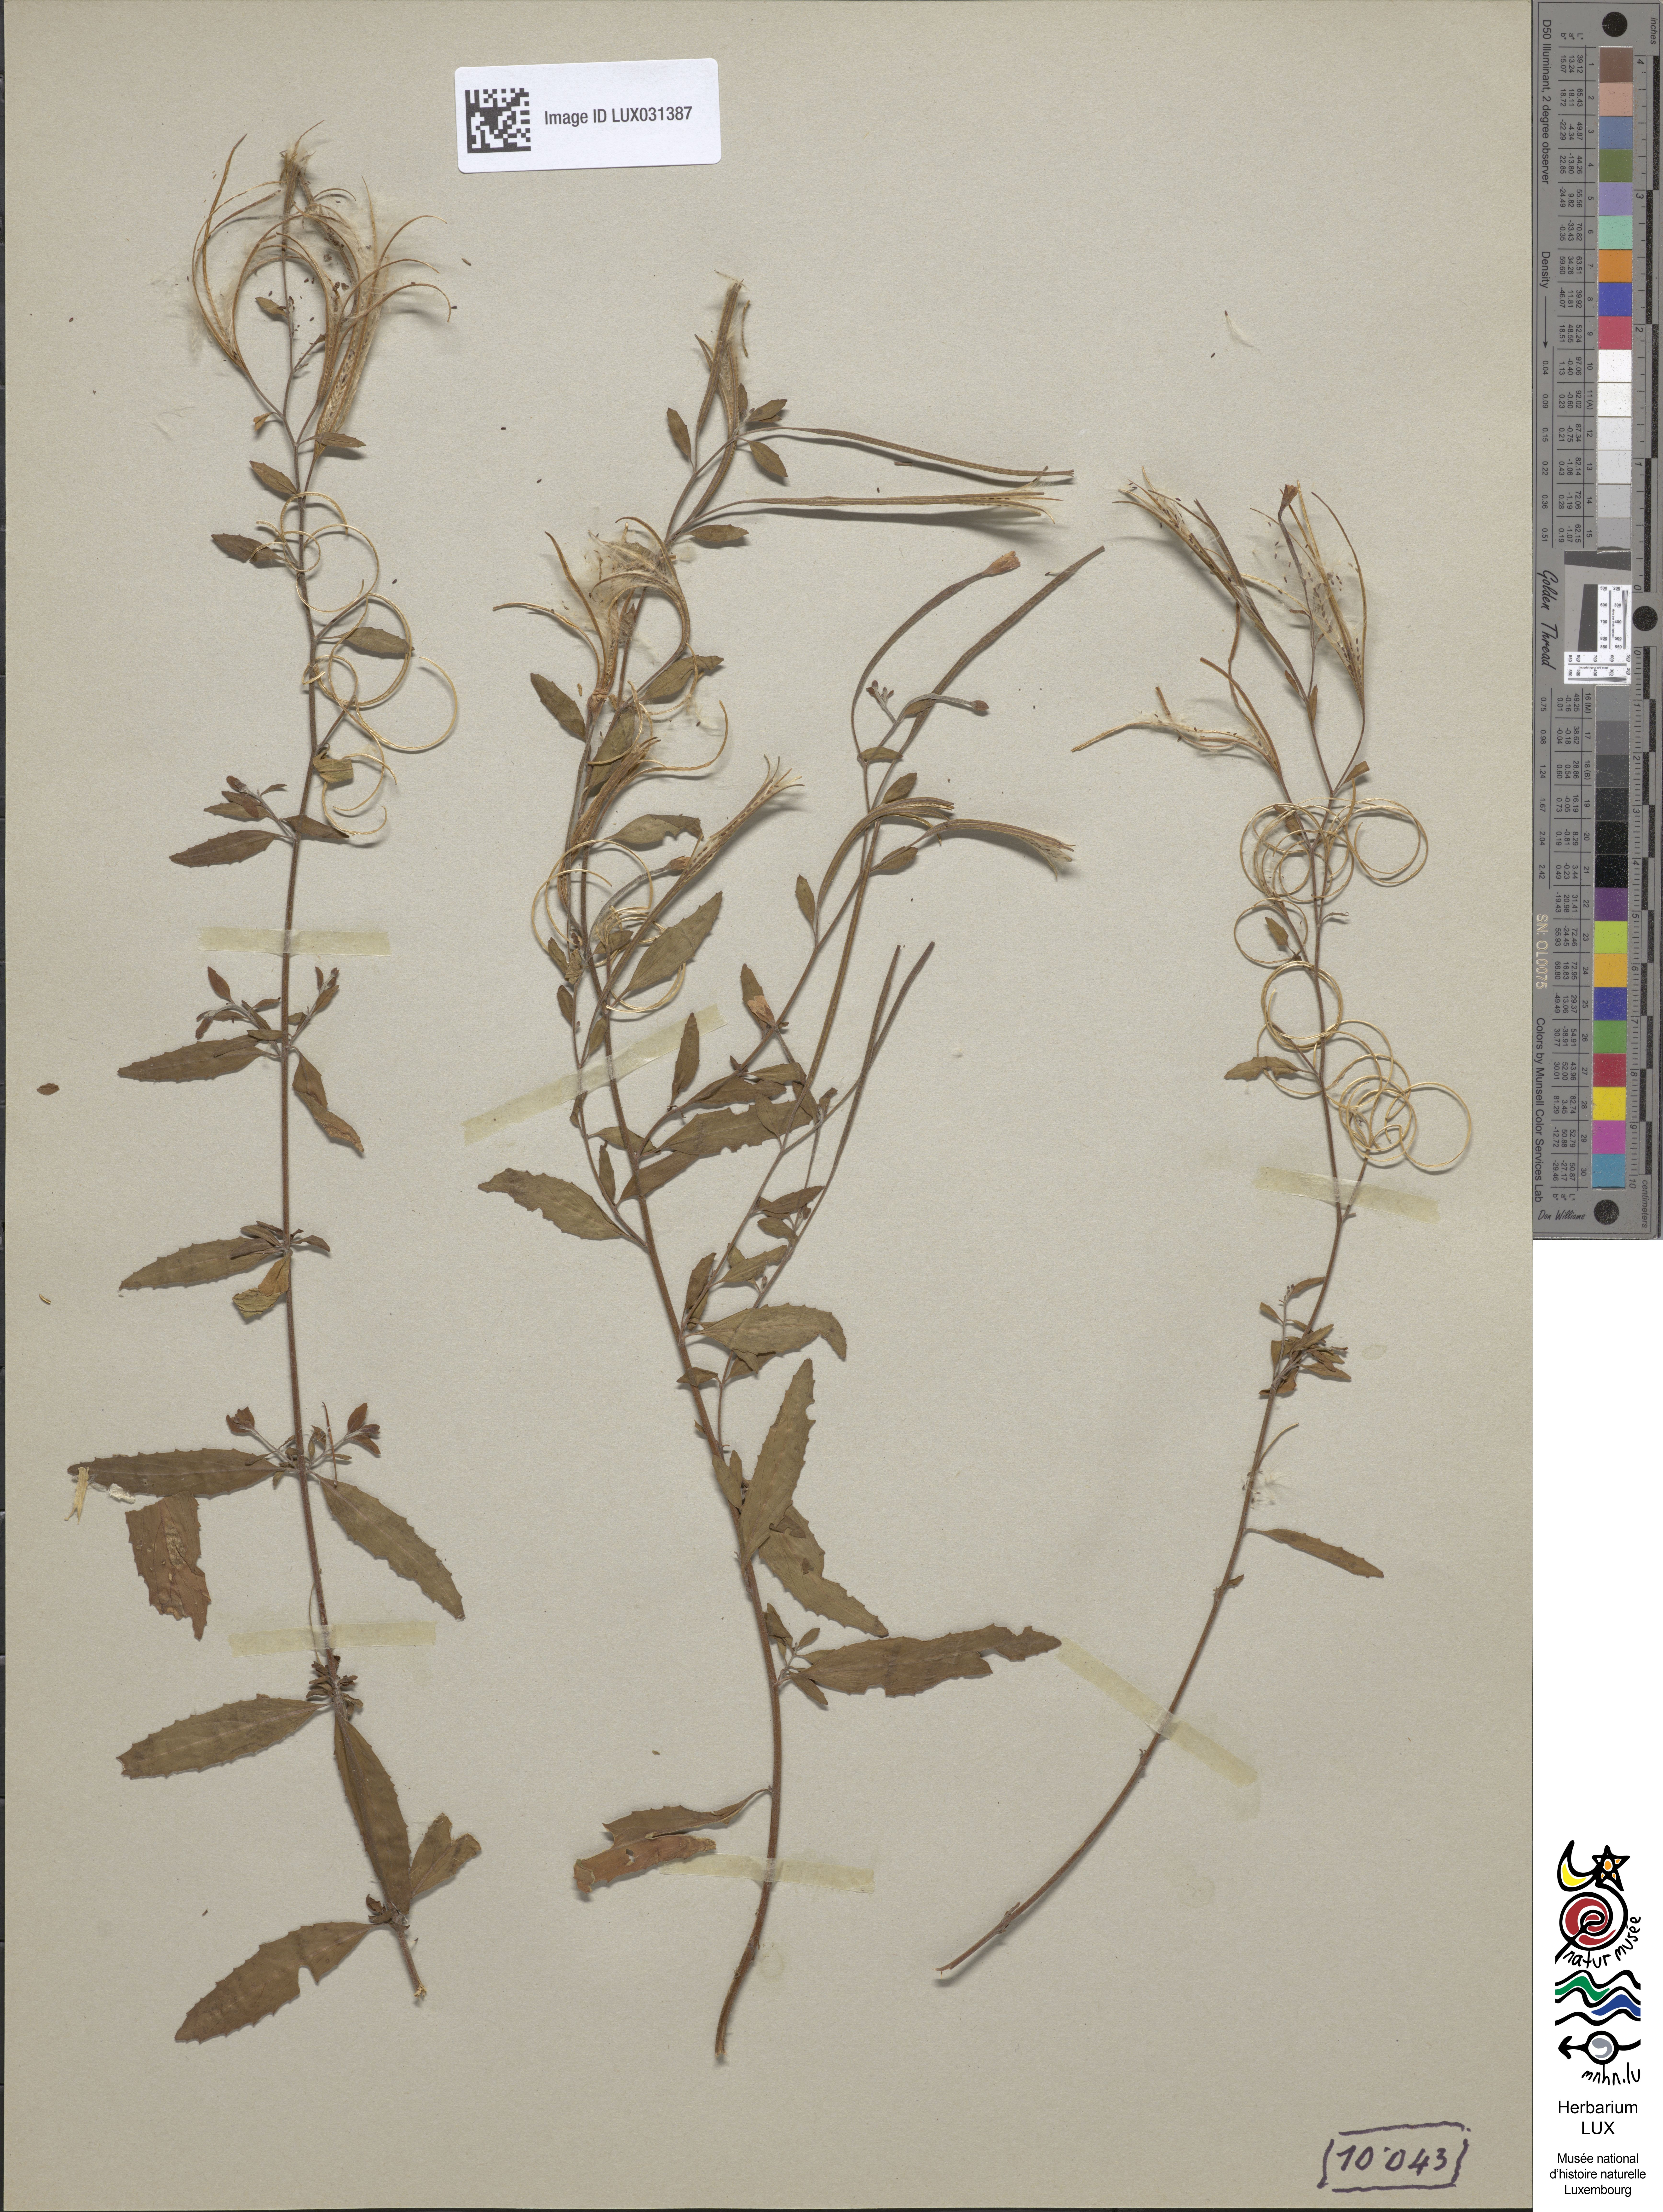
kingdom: Plantae
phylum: Tracheophyta
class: Magnoliopsida
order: Myrtales
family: Onagraceae
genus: Epilobium
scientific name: Epilobium lanceolatum
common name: Spear-leaved willowherb
